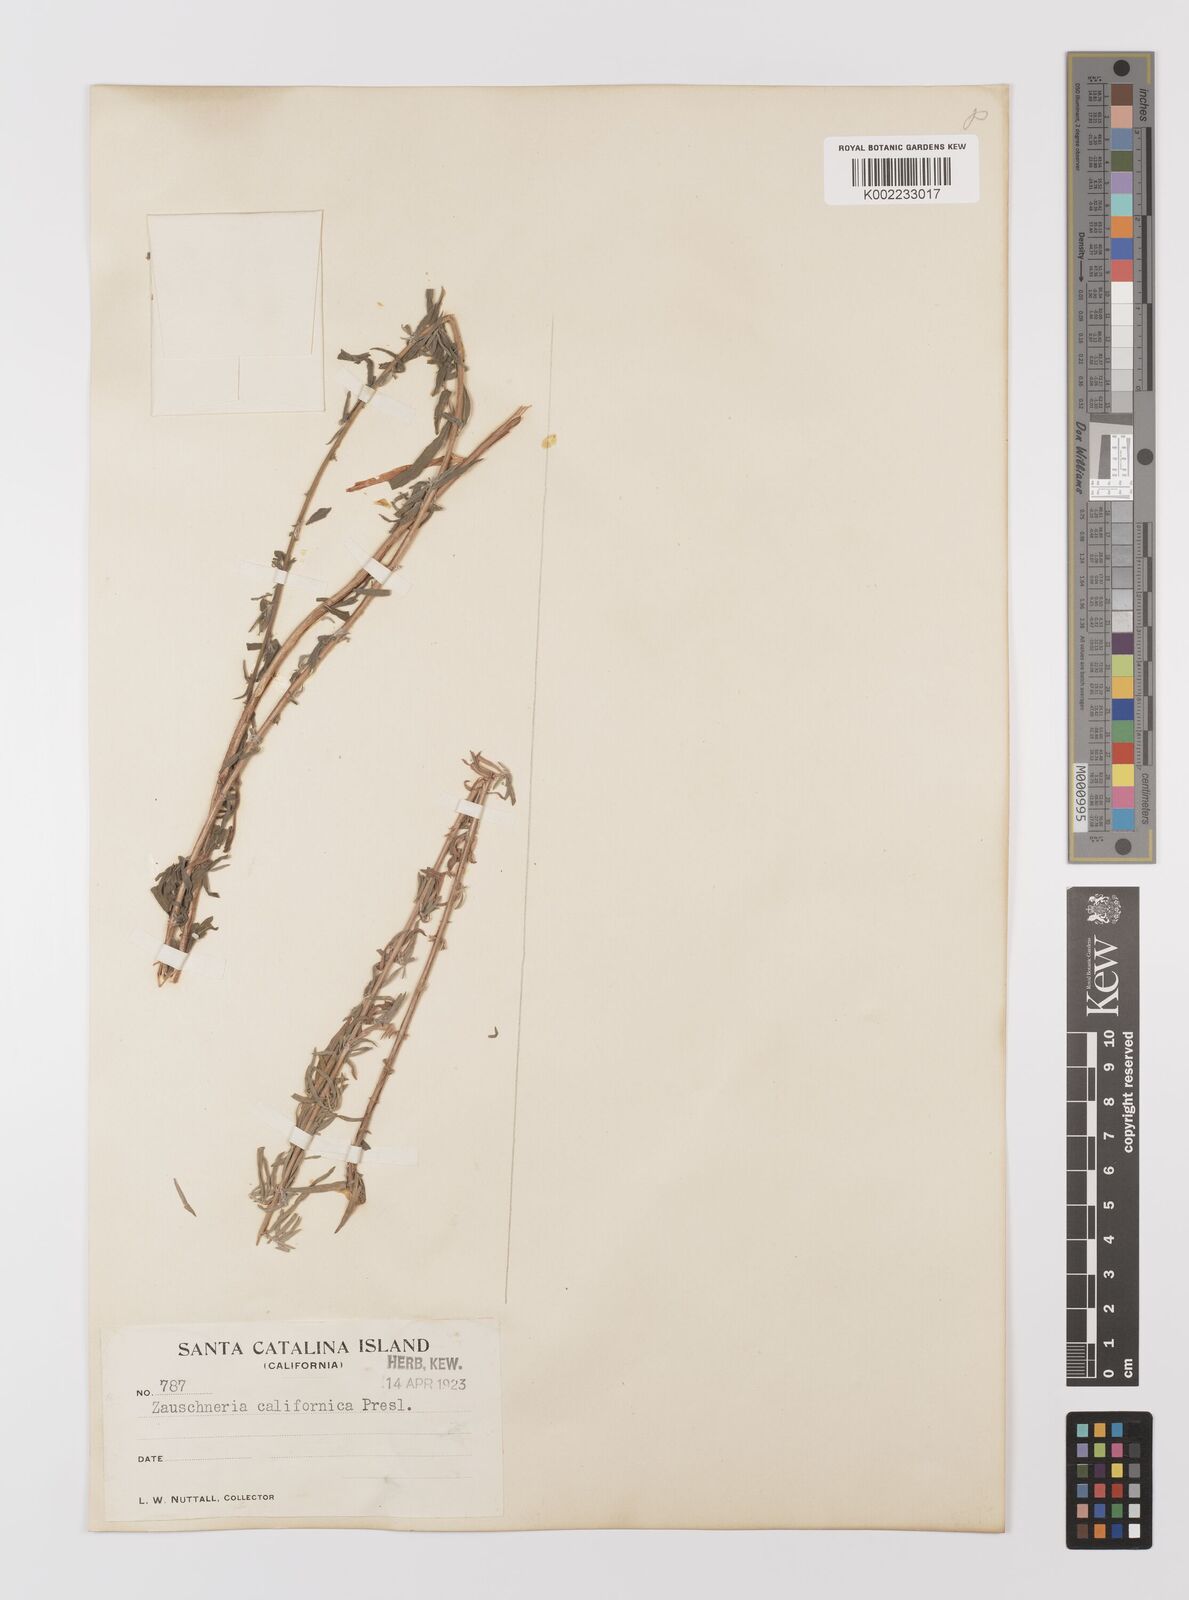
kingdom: Plantae
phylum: Tracheophyta
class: Magnoliopsida
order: Myrtales
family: Onagraceae
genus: Epilobium
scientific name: Epilobium canum
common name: California-fuchsia
